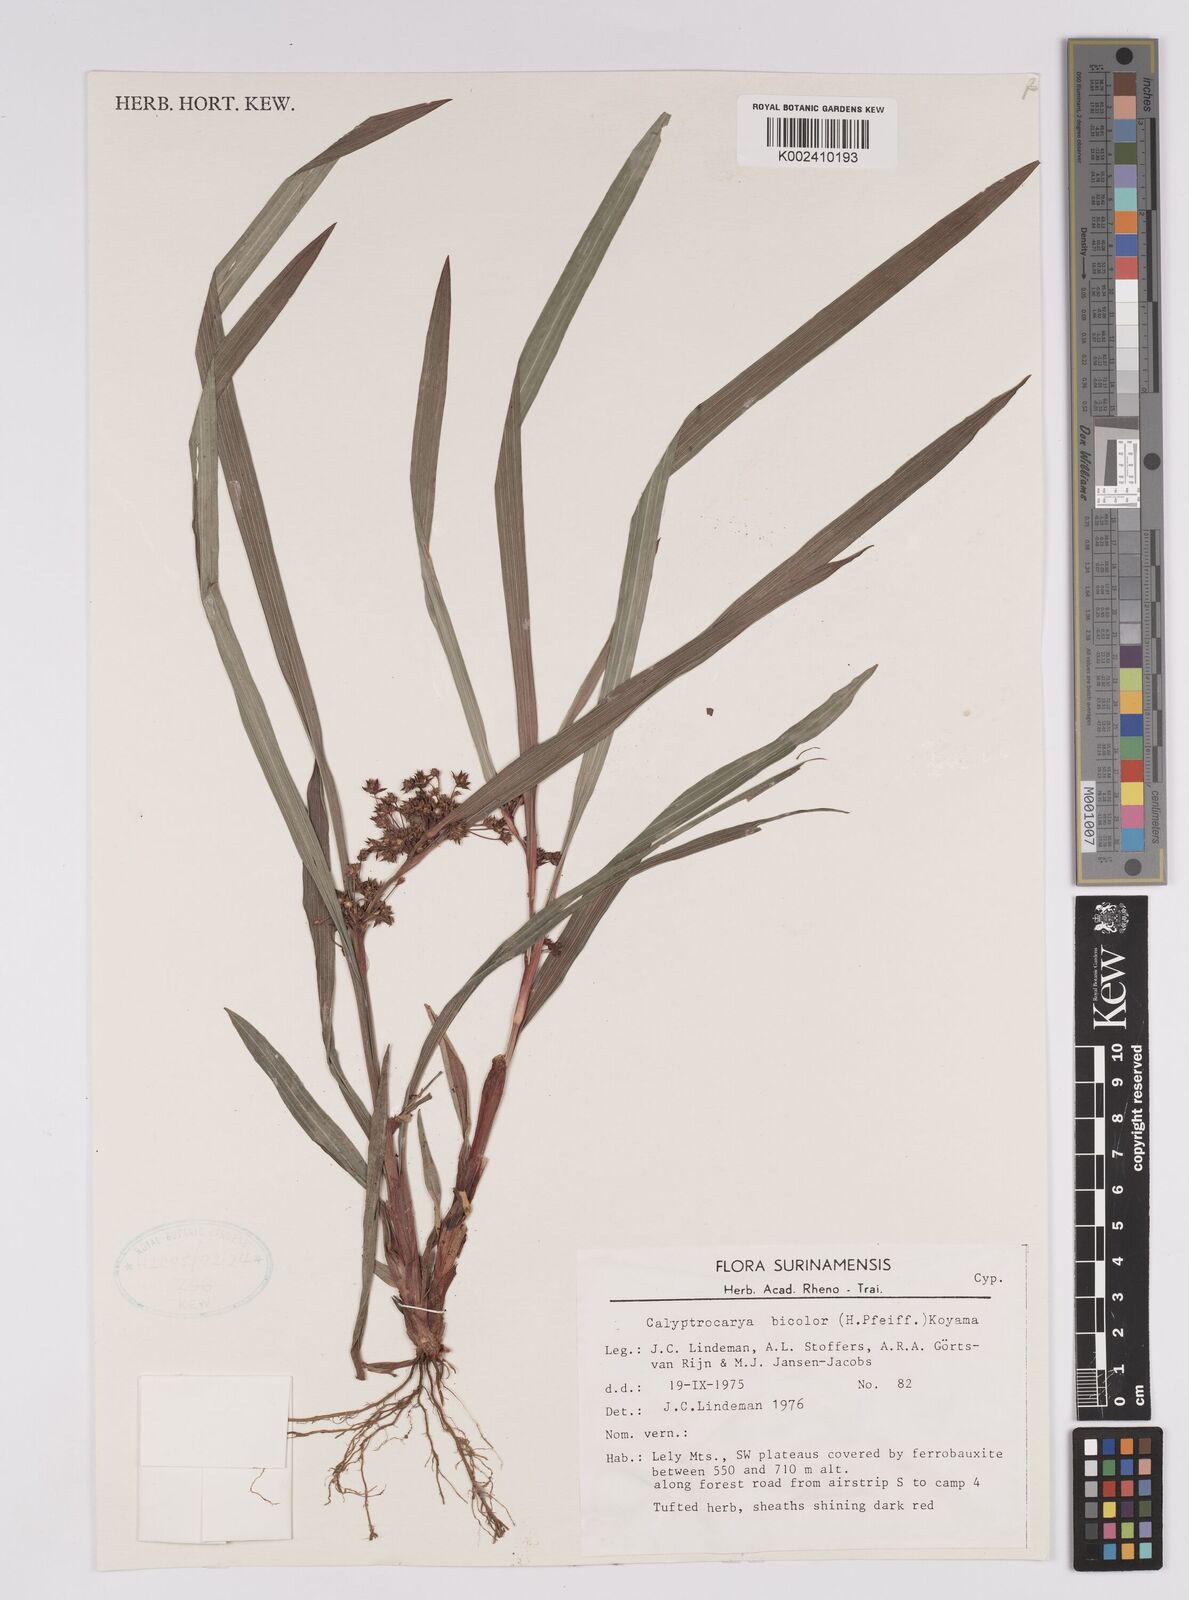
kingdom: Plantae
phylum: Tracheophyta
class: Liliopsida
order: Poales
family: Cyperaceae
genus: Calyptrocarya
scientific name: Calyptrocarya bicolor
